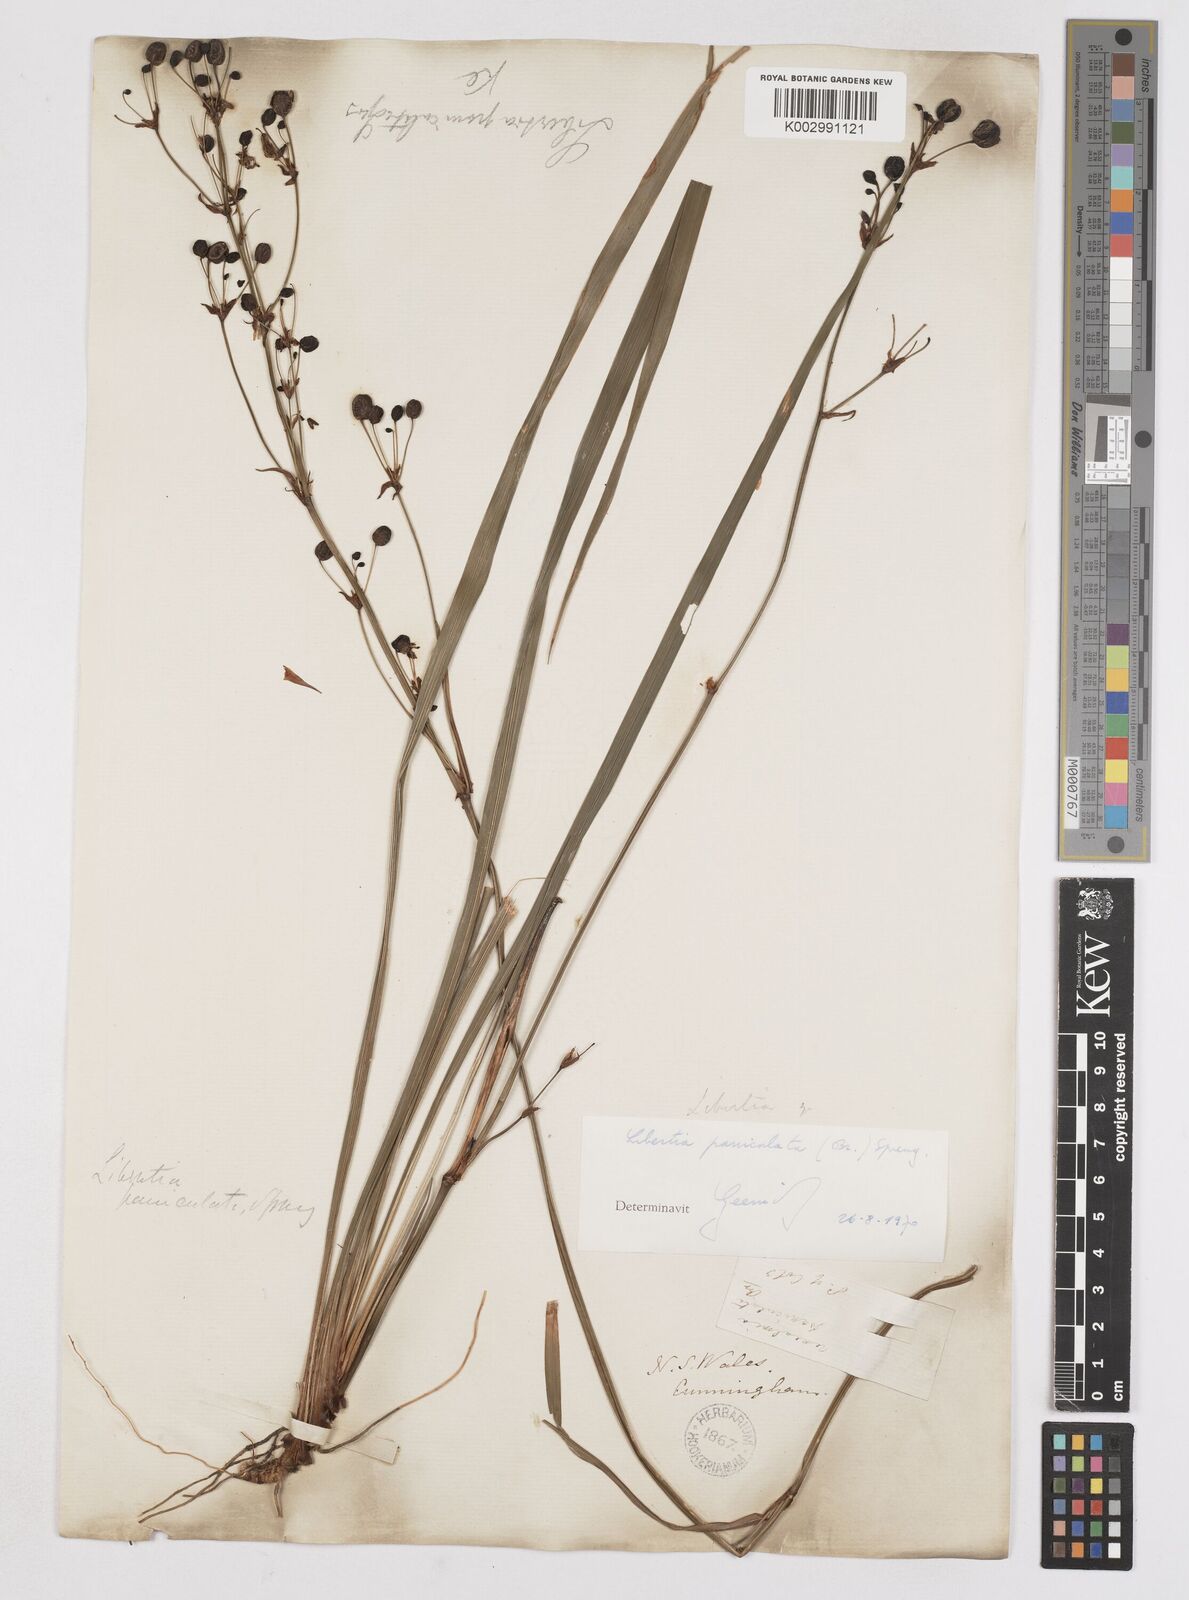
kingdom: Plantae
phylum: Tracheophyta
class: Liliopsida
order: Asparagales
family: Iridaceae
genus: Libertia
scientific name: Libertia paniculata
